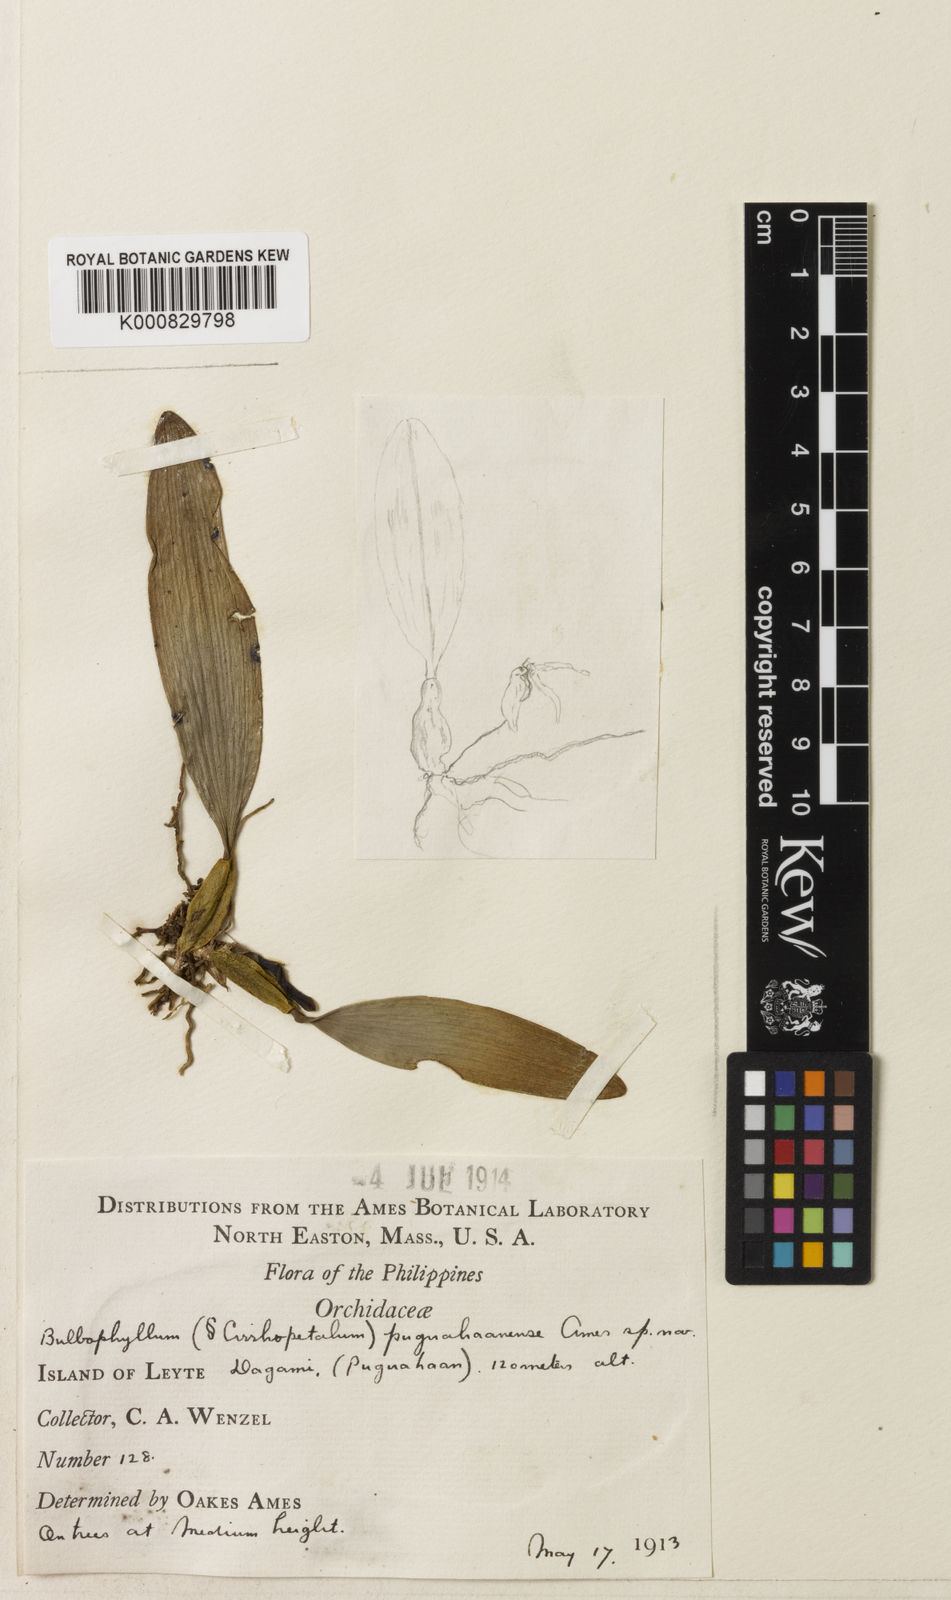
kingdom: Plantae
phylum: Tracheophyta
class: Liliopsida
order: Asparagales
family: Orchidaceae
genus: Bulbophyllum
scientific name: Bulbophyllum puguahaanense
